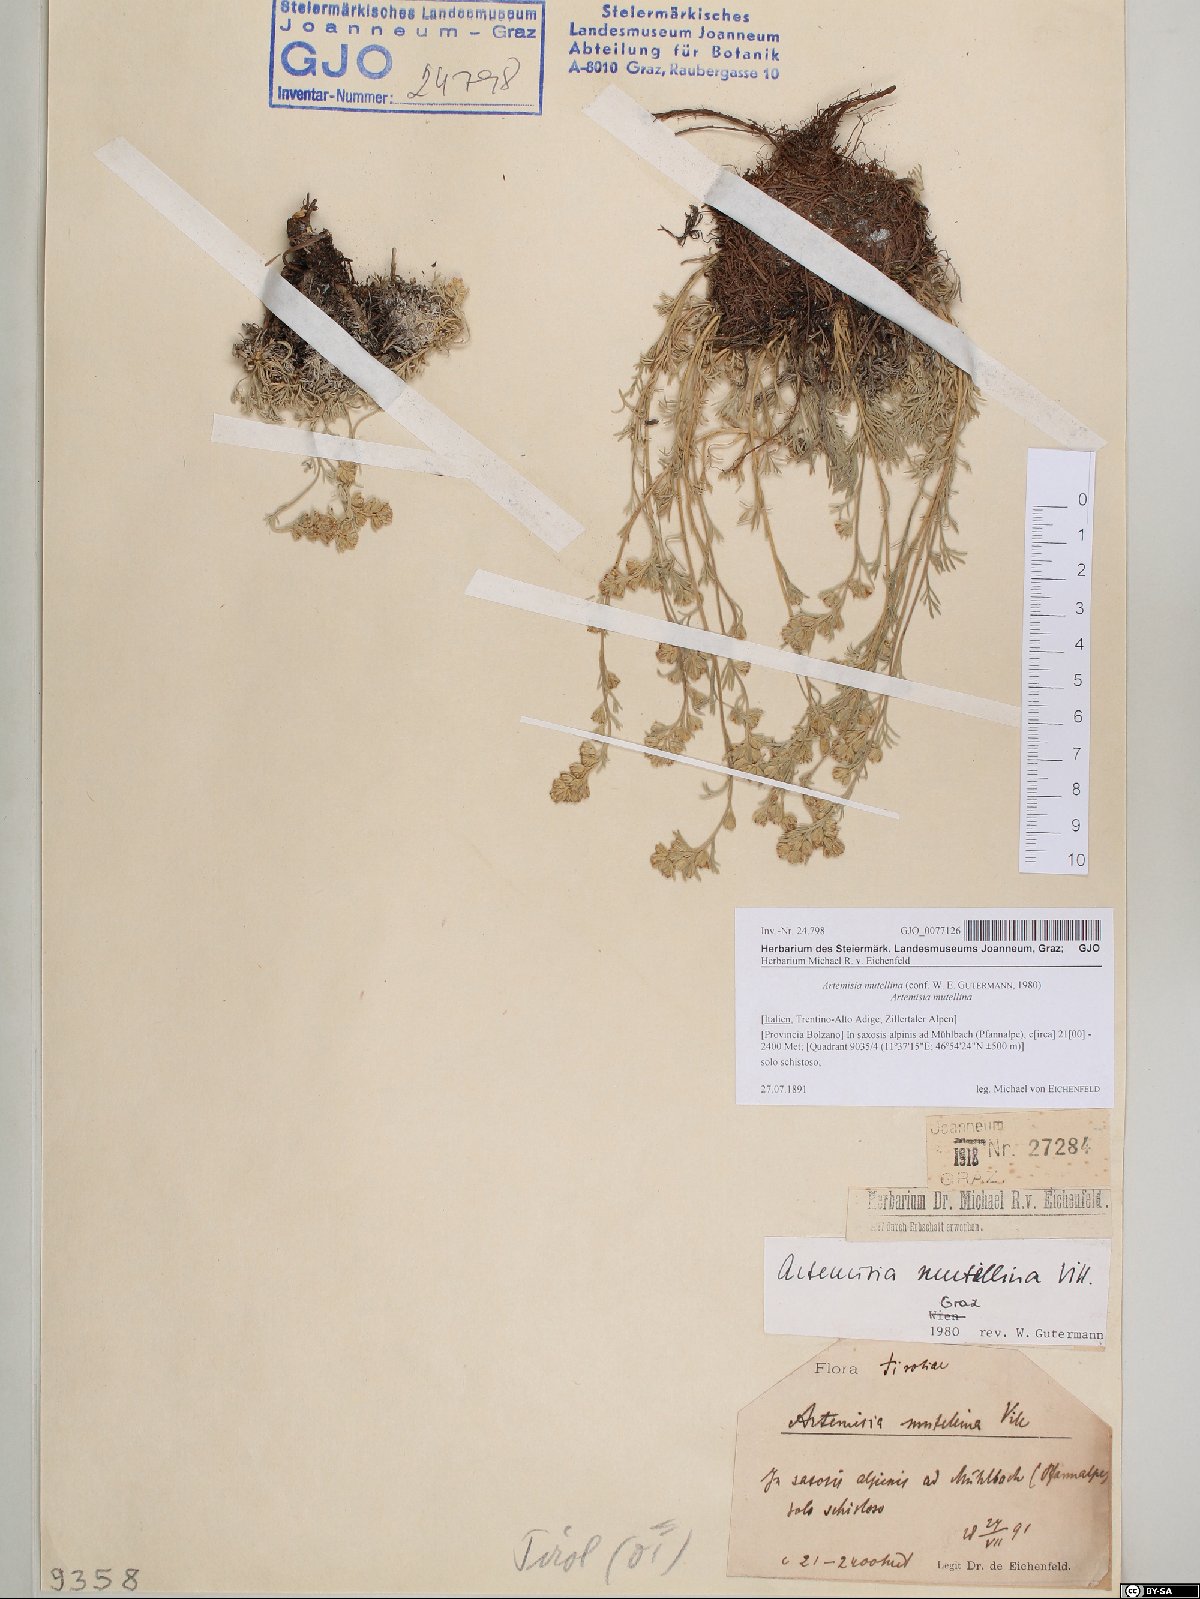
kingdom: Plantae
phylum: Tracheophyta
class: Magnoliopsida
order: Asterales
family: Asteraceae
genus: Artemisia
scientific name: Artemisia mutellina
